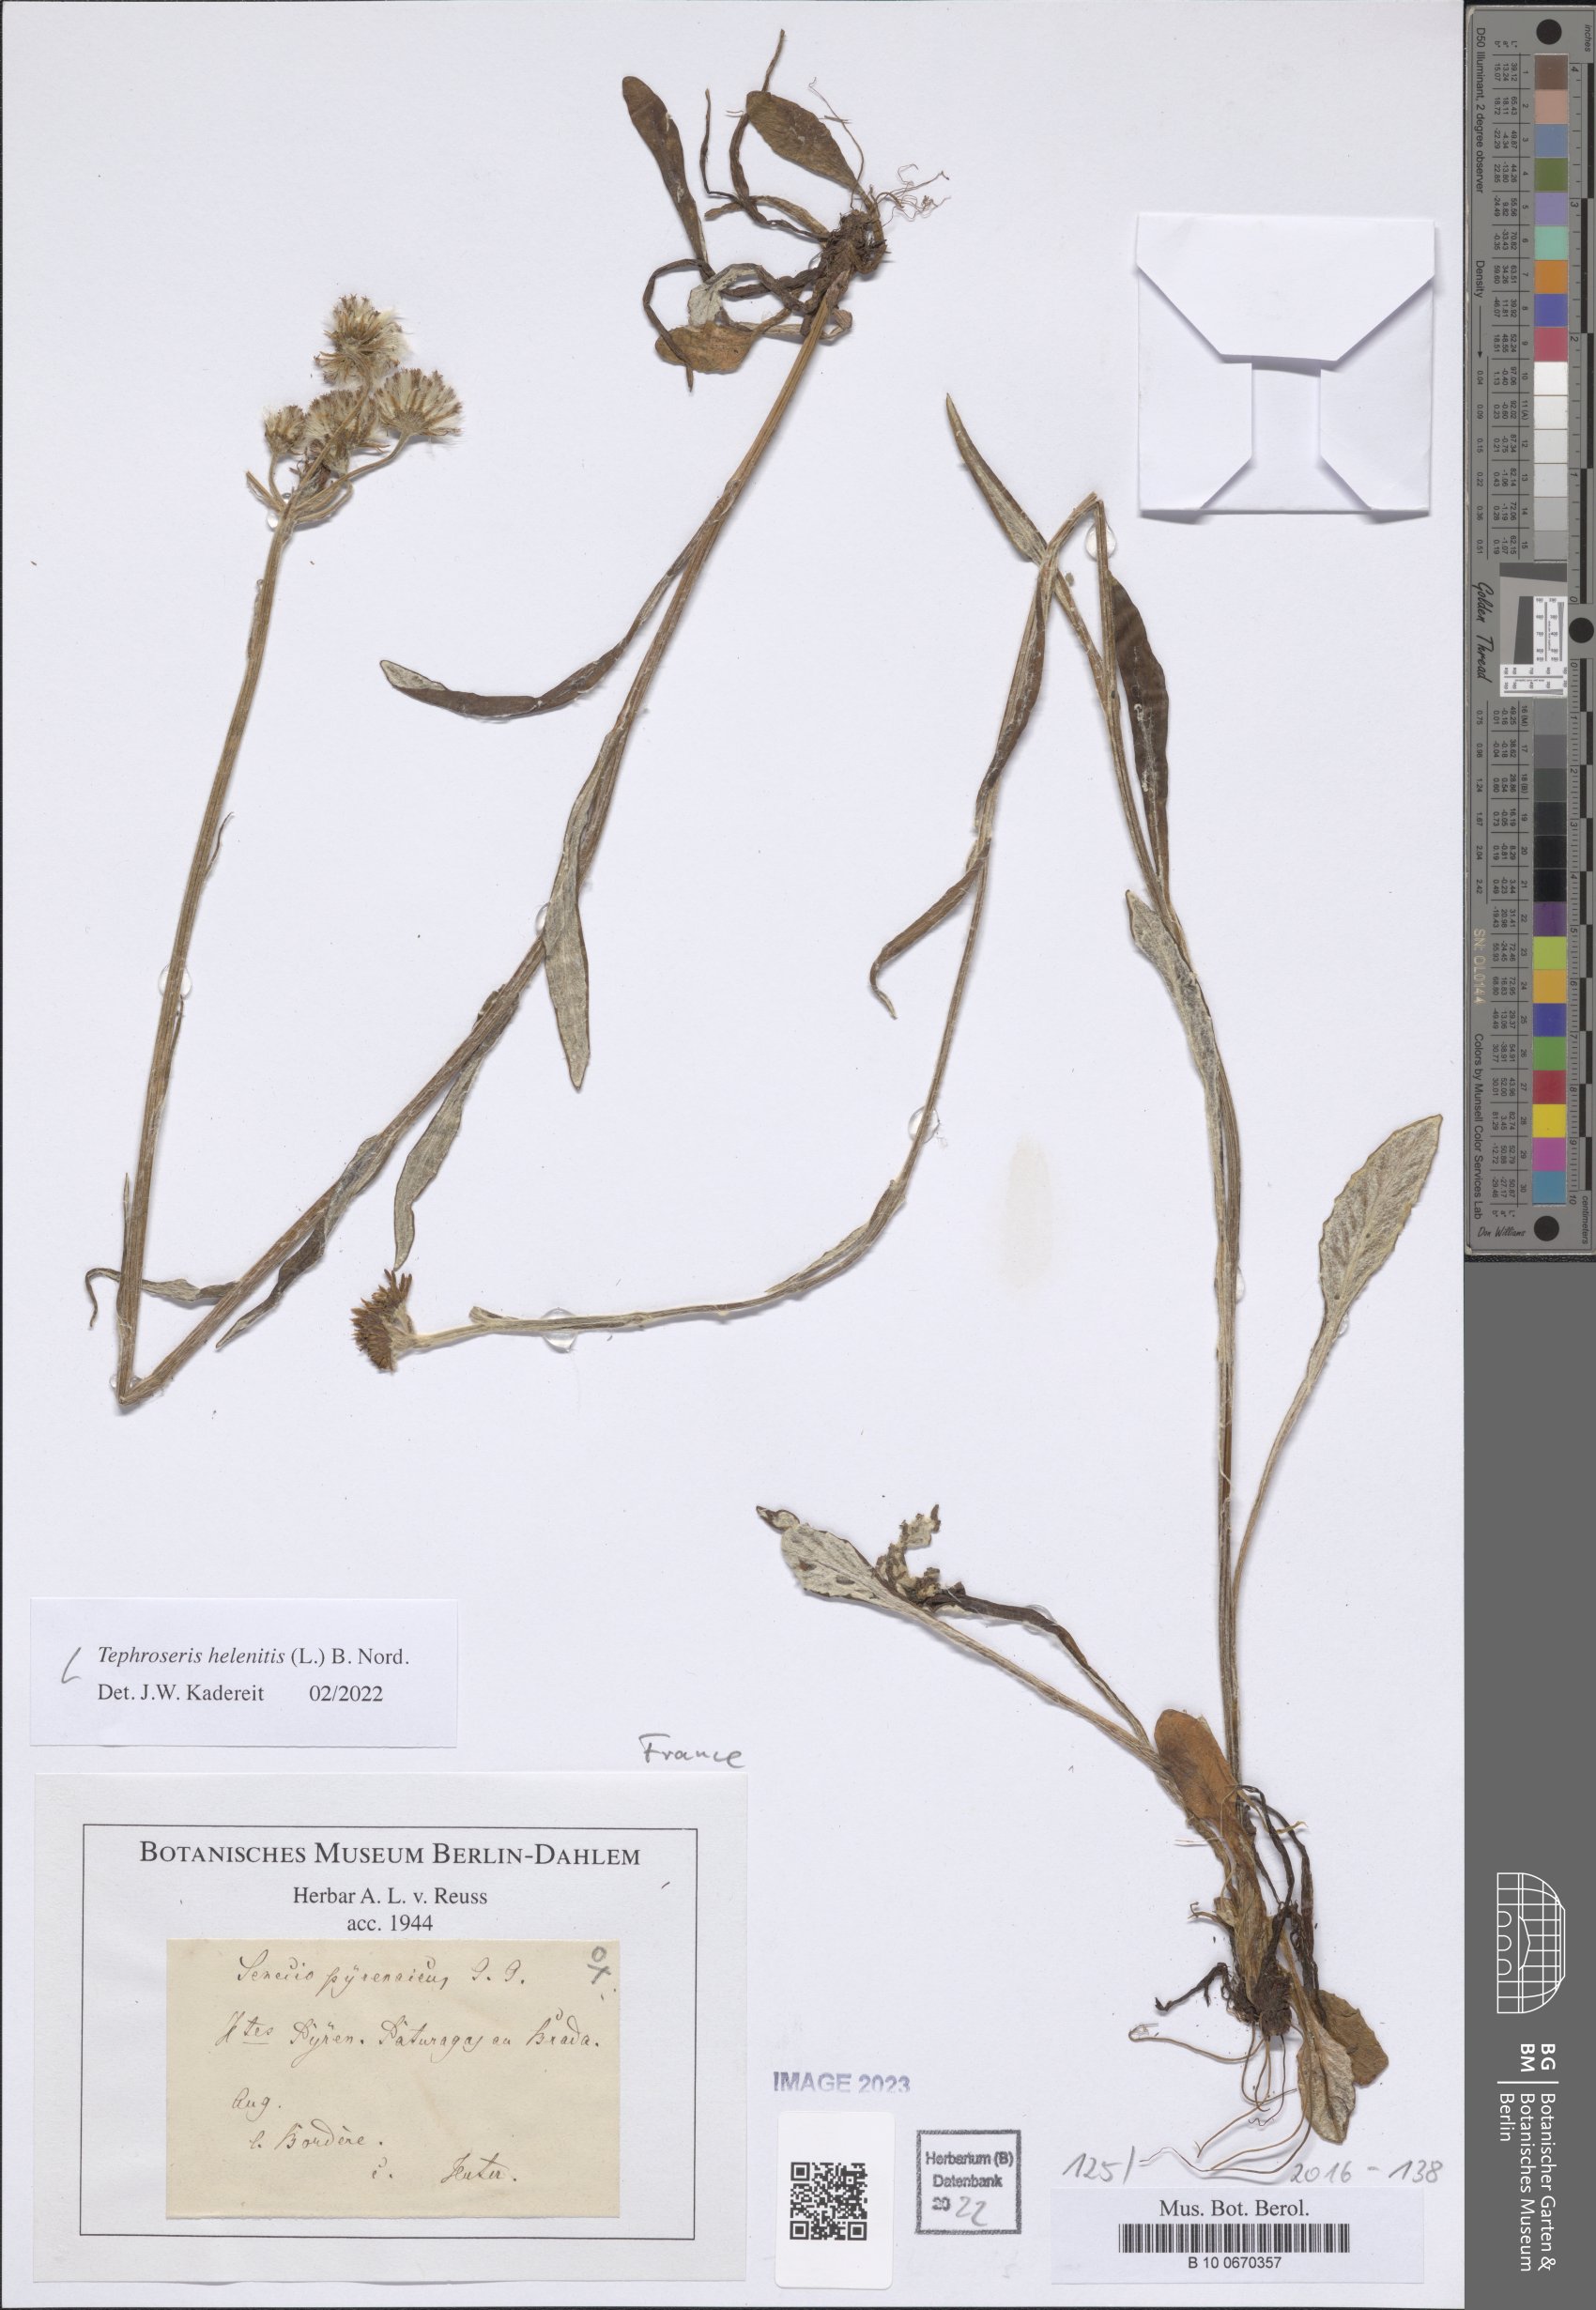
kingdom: Plantae
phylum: Tracheophyta
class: Magnoliopsida
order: Asterales
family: Asteraceae
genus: Tephroseris
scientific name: Tephroseris helenitis
